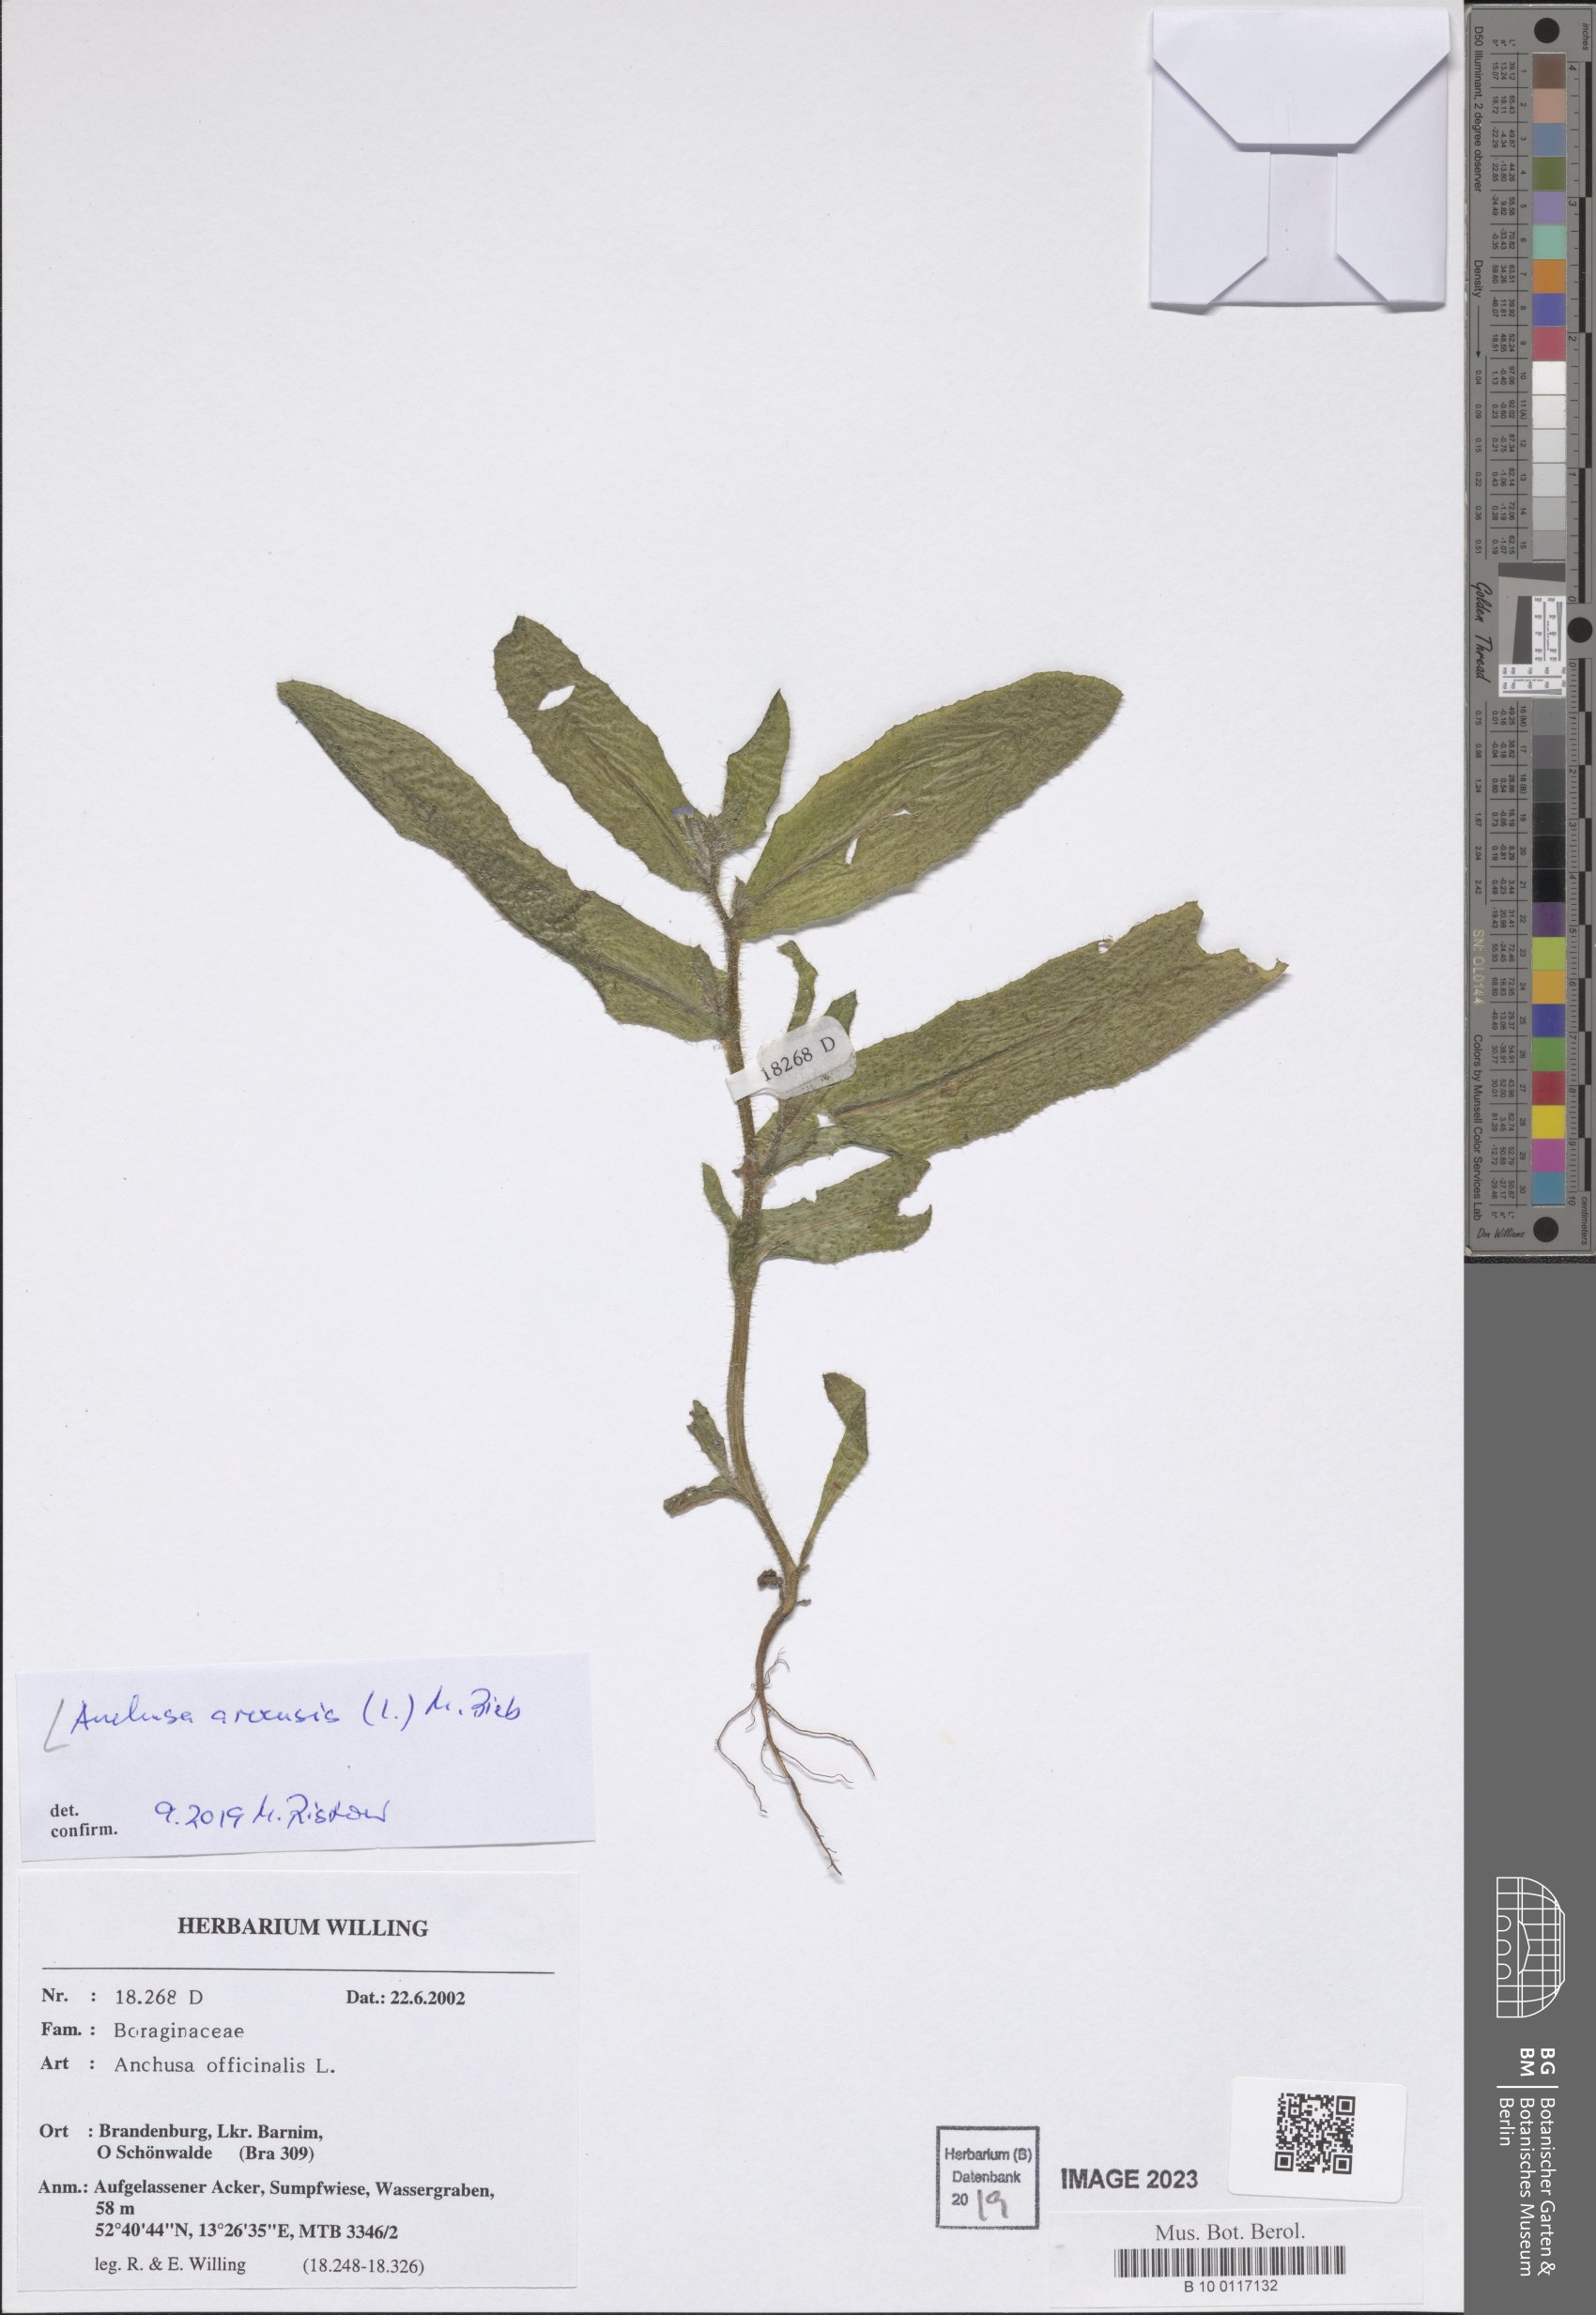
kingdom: Plantae
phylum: Tracheophyta
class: Magnoliopsida
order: Boraginales
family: Boraginaceae
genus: Lycopsis
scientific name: Lycopsis arvensis
